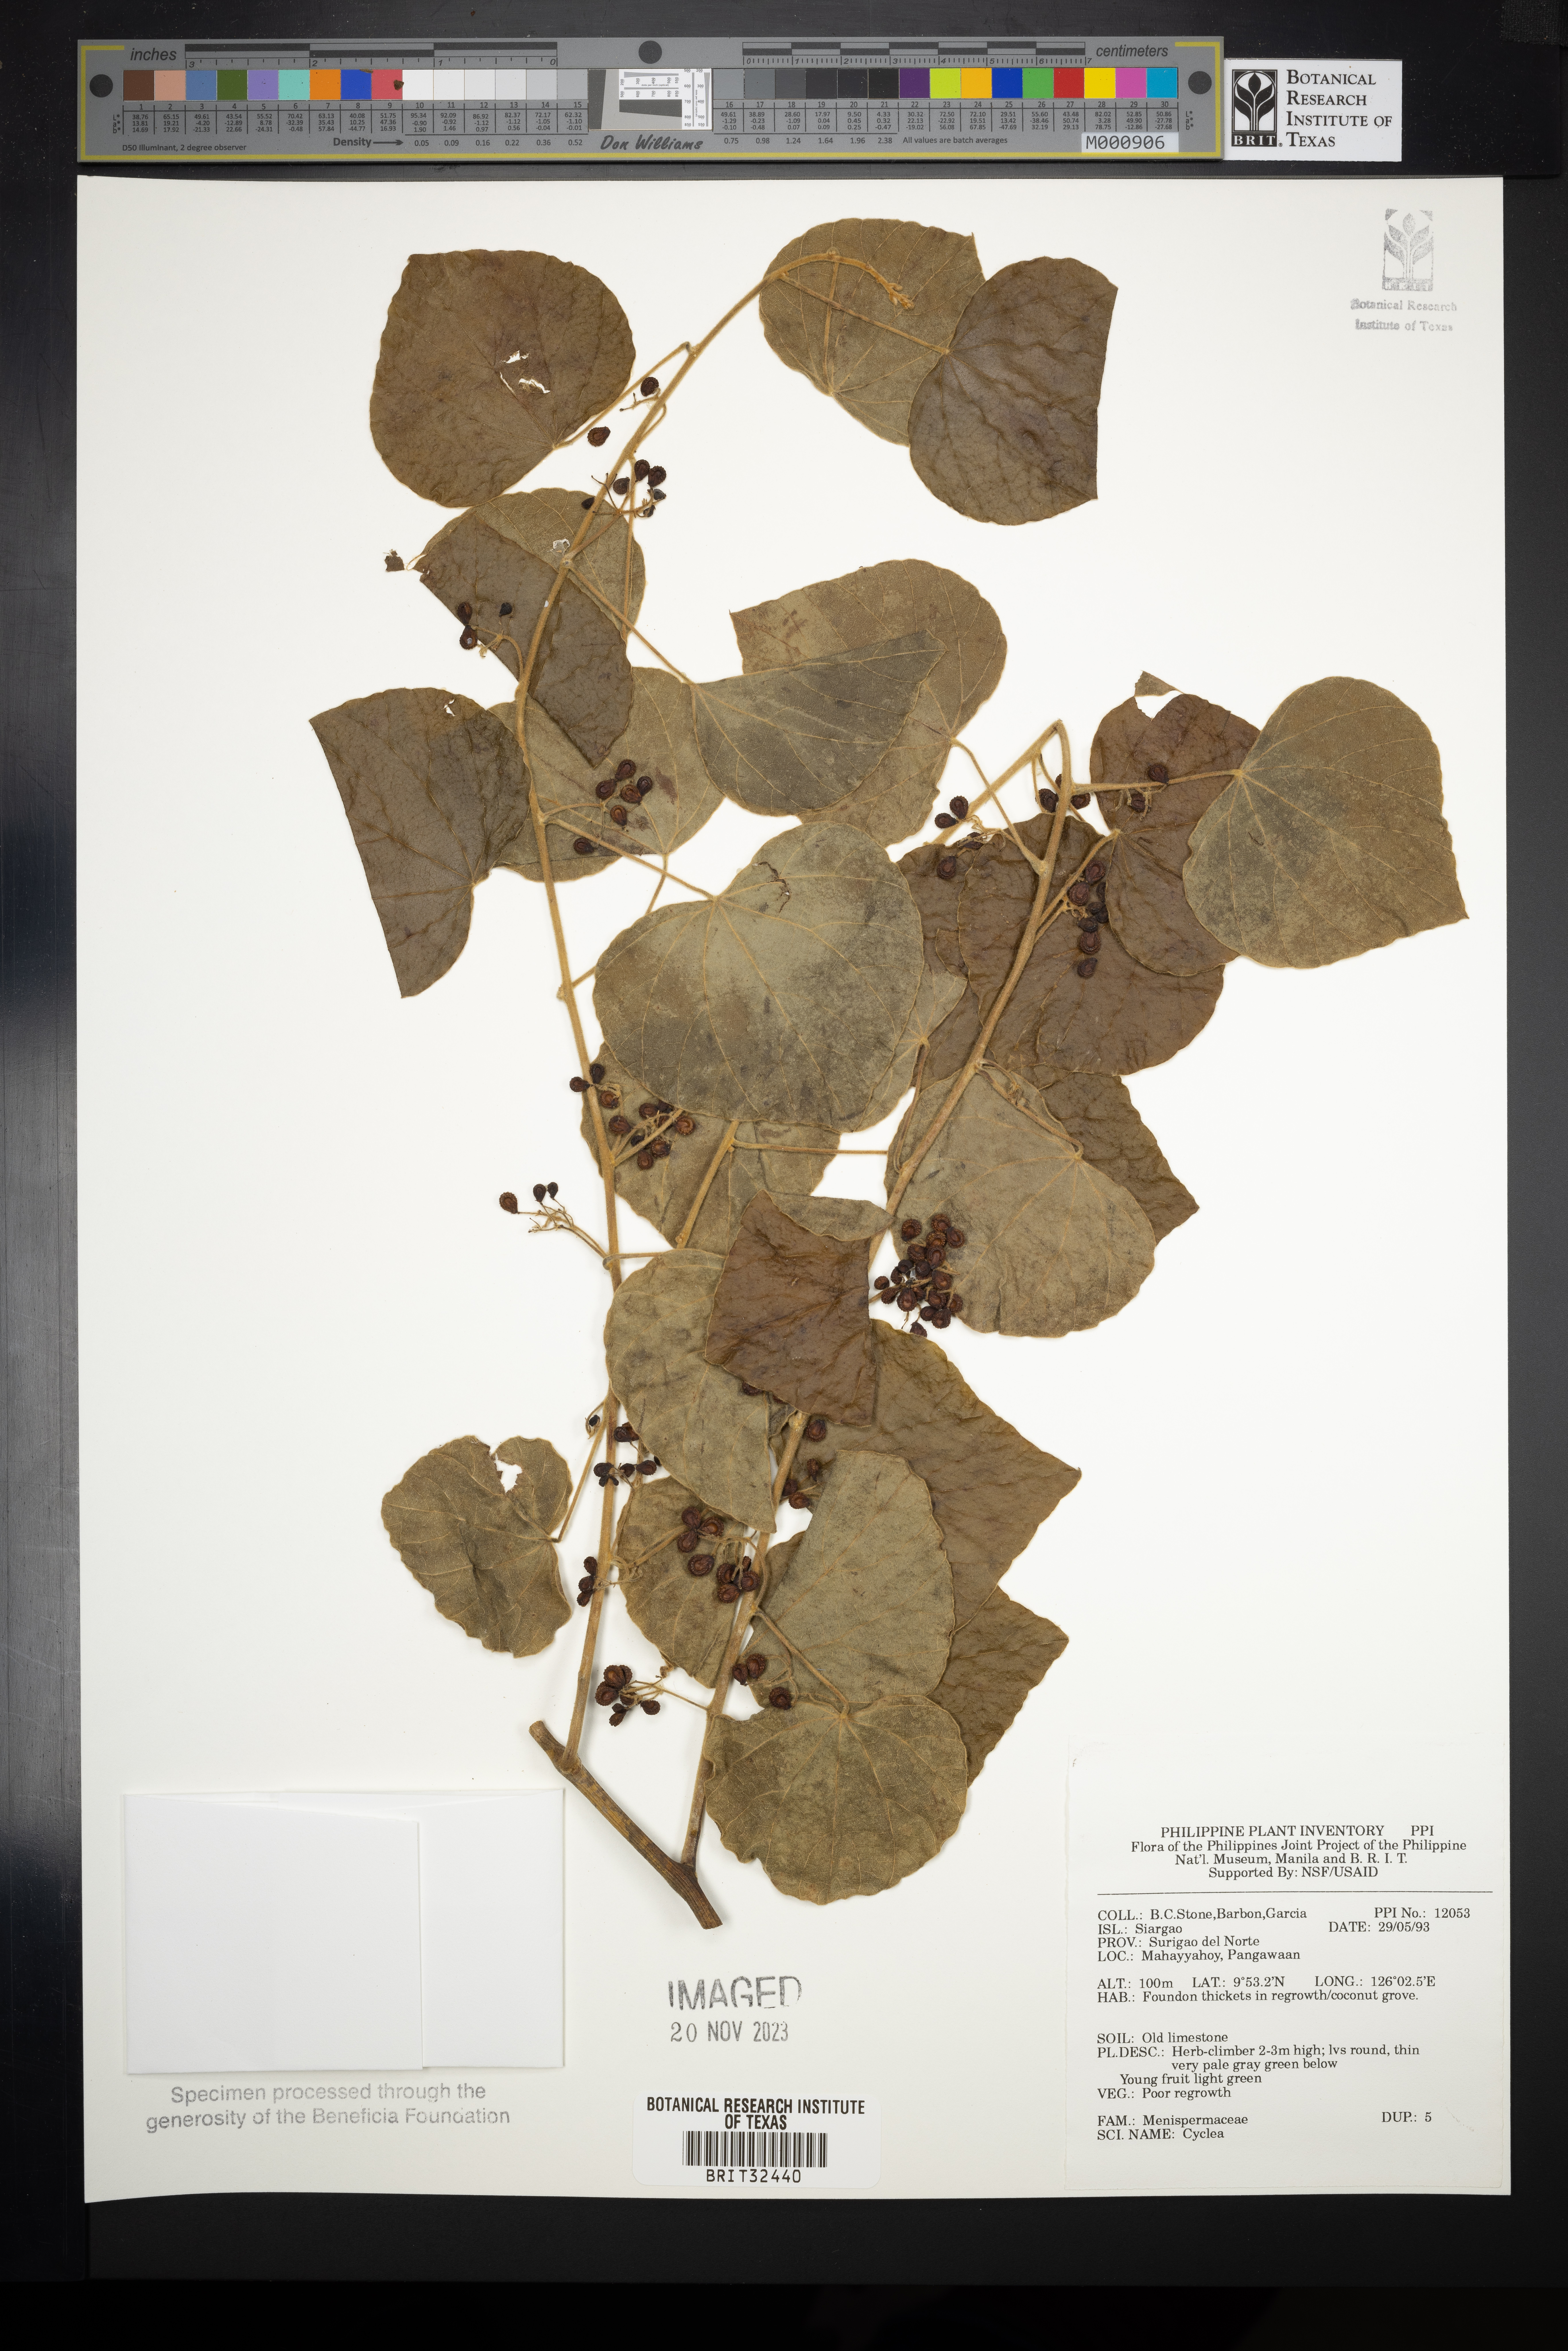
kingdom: Plantae
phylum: Tracheophyta
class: Magnoliopsida
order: Ranunculales
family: Menispermaceae
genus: Cyclea
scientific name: Cyclea
